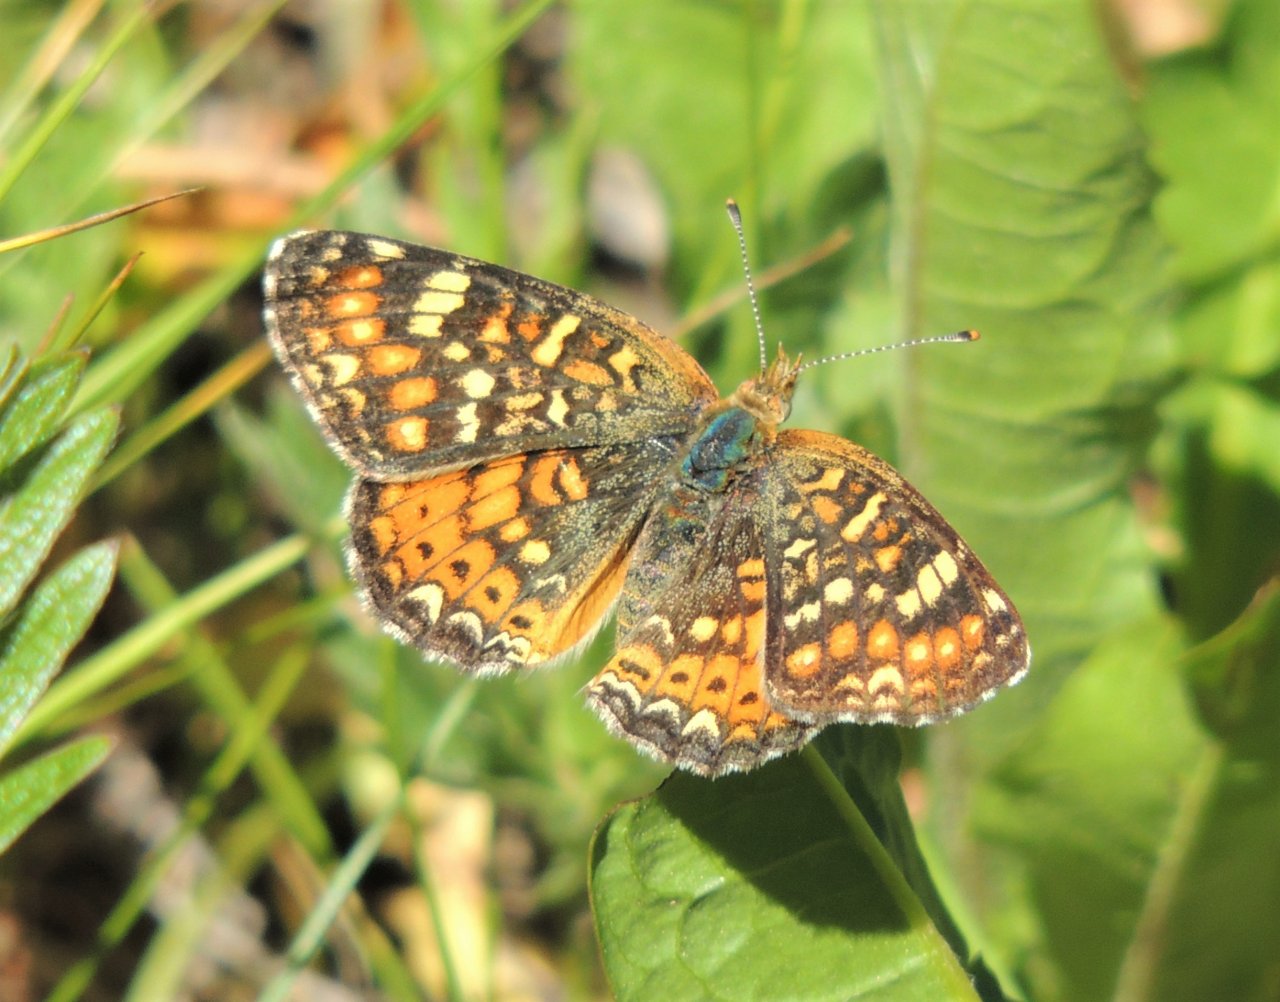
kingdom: Animalia
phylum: Arthropoda
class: Insecta
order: Lepidoptera
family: Nymphalidae
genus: Phyciodes
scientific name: Phyciodes tharos
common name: Field Crescent
